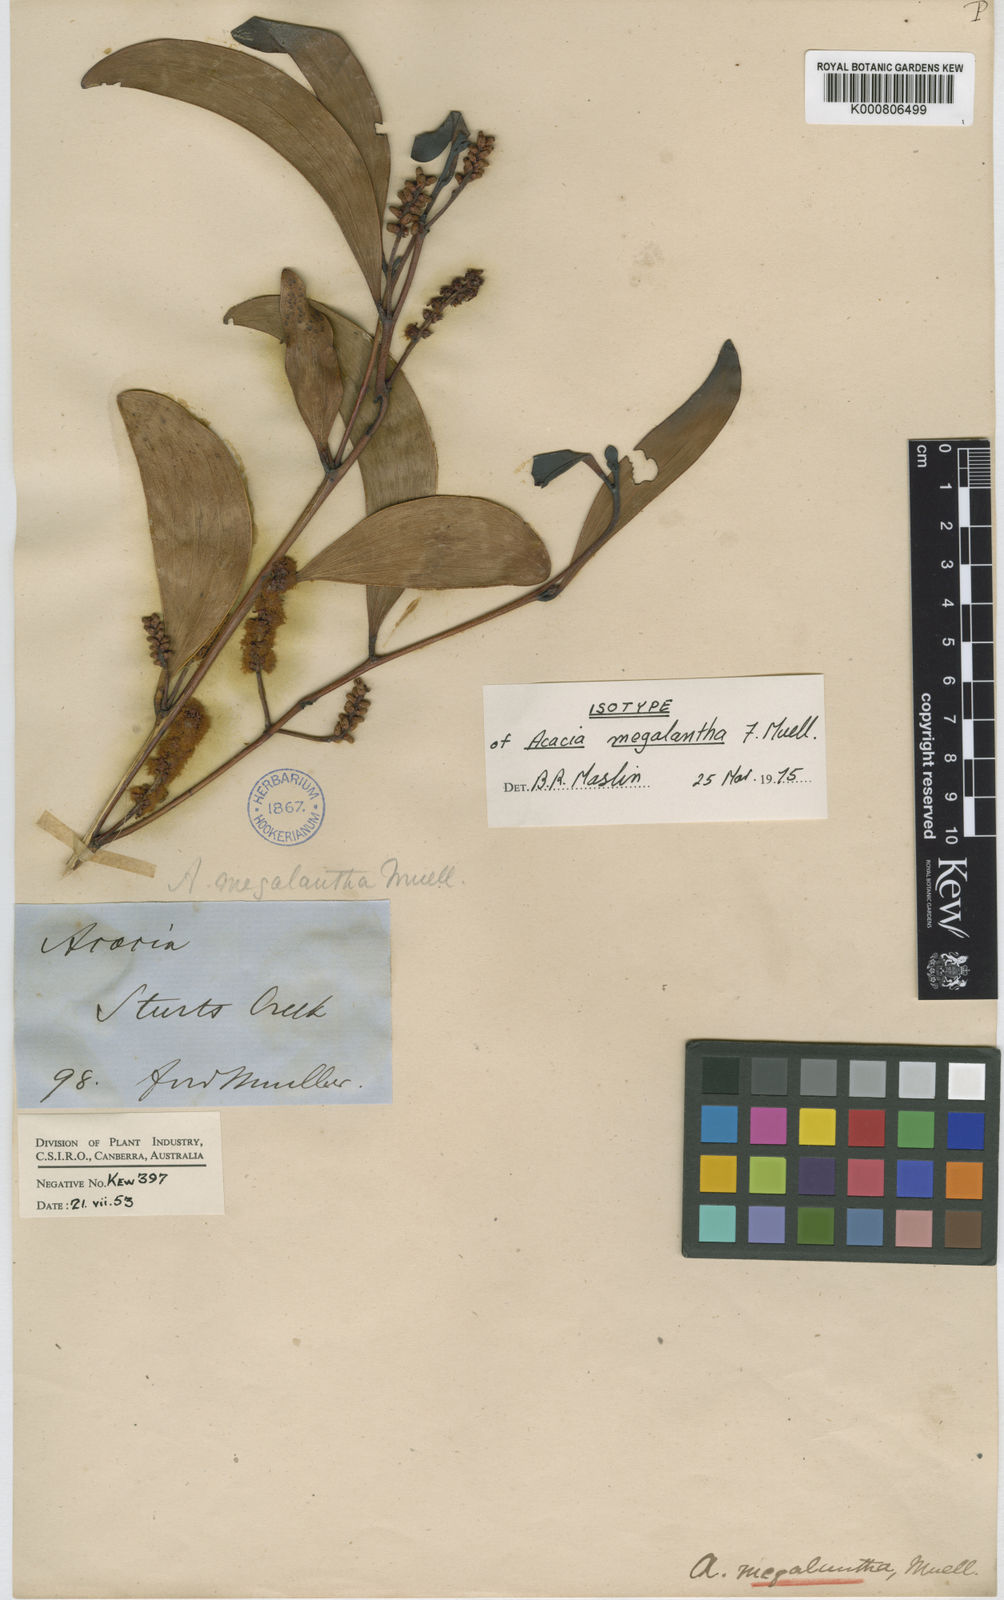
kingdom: Plantae
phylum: Tracheophyta
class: Magnoliopsida
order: Fabales
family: Fabaceae
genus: Acacia
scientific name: Acacia megalantha
